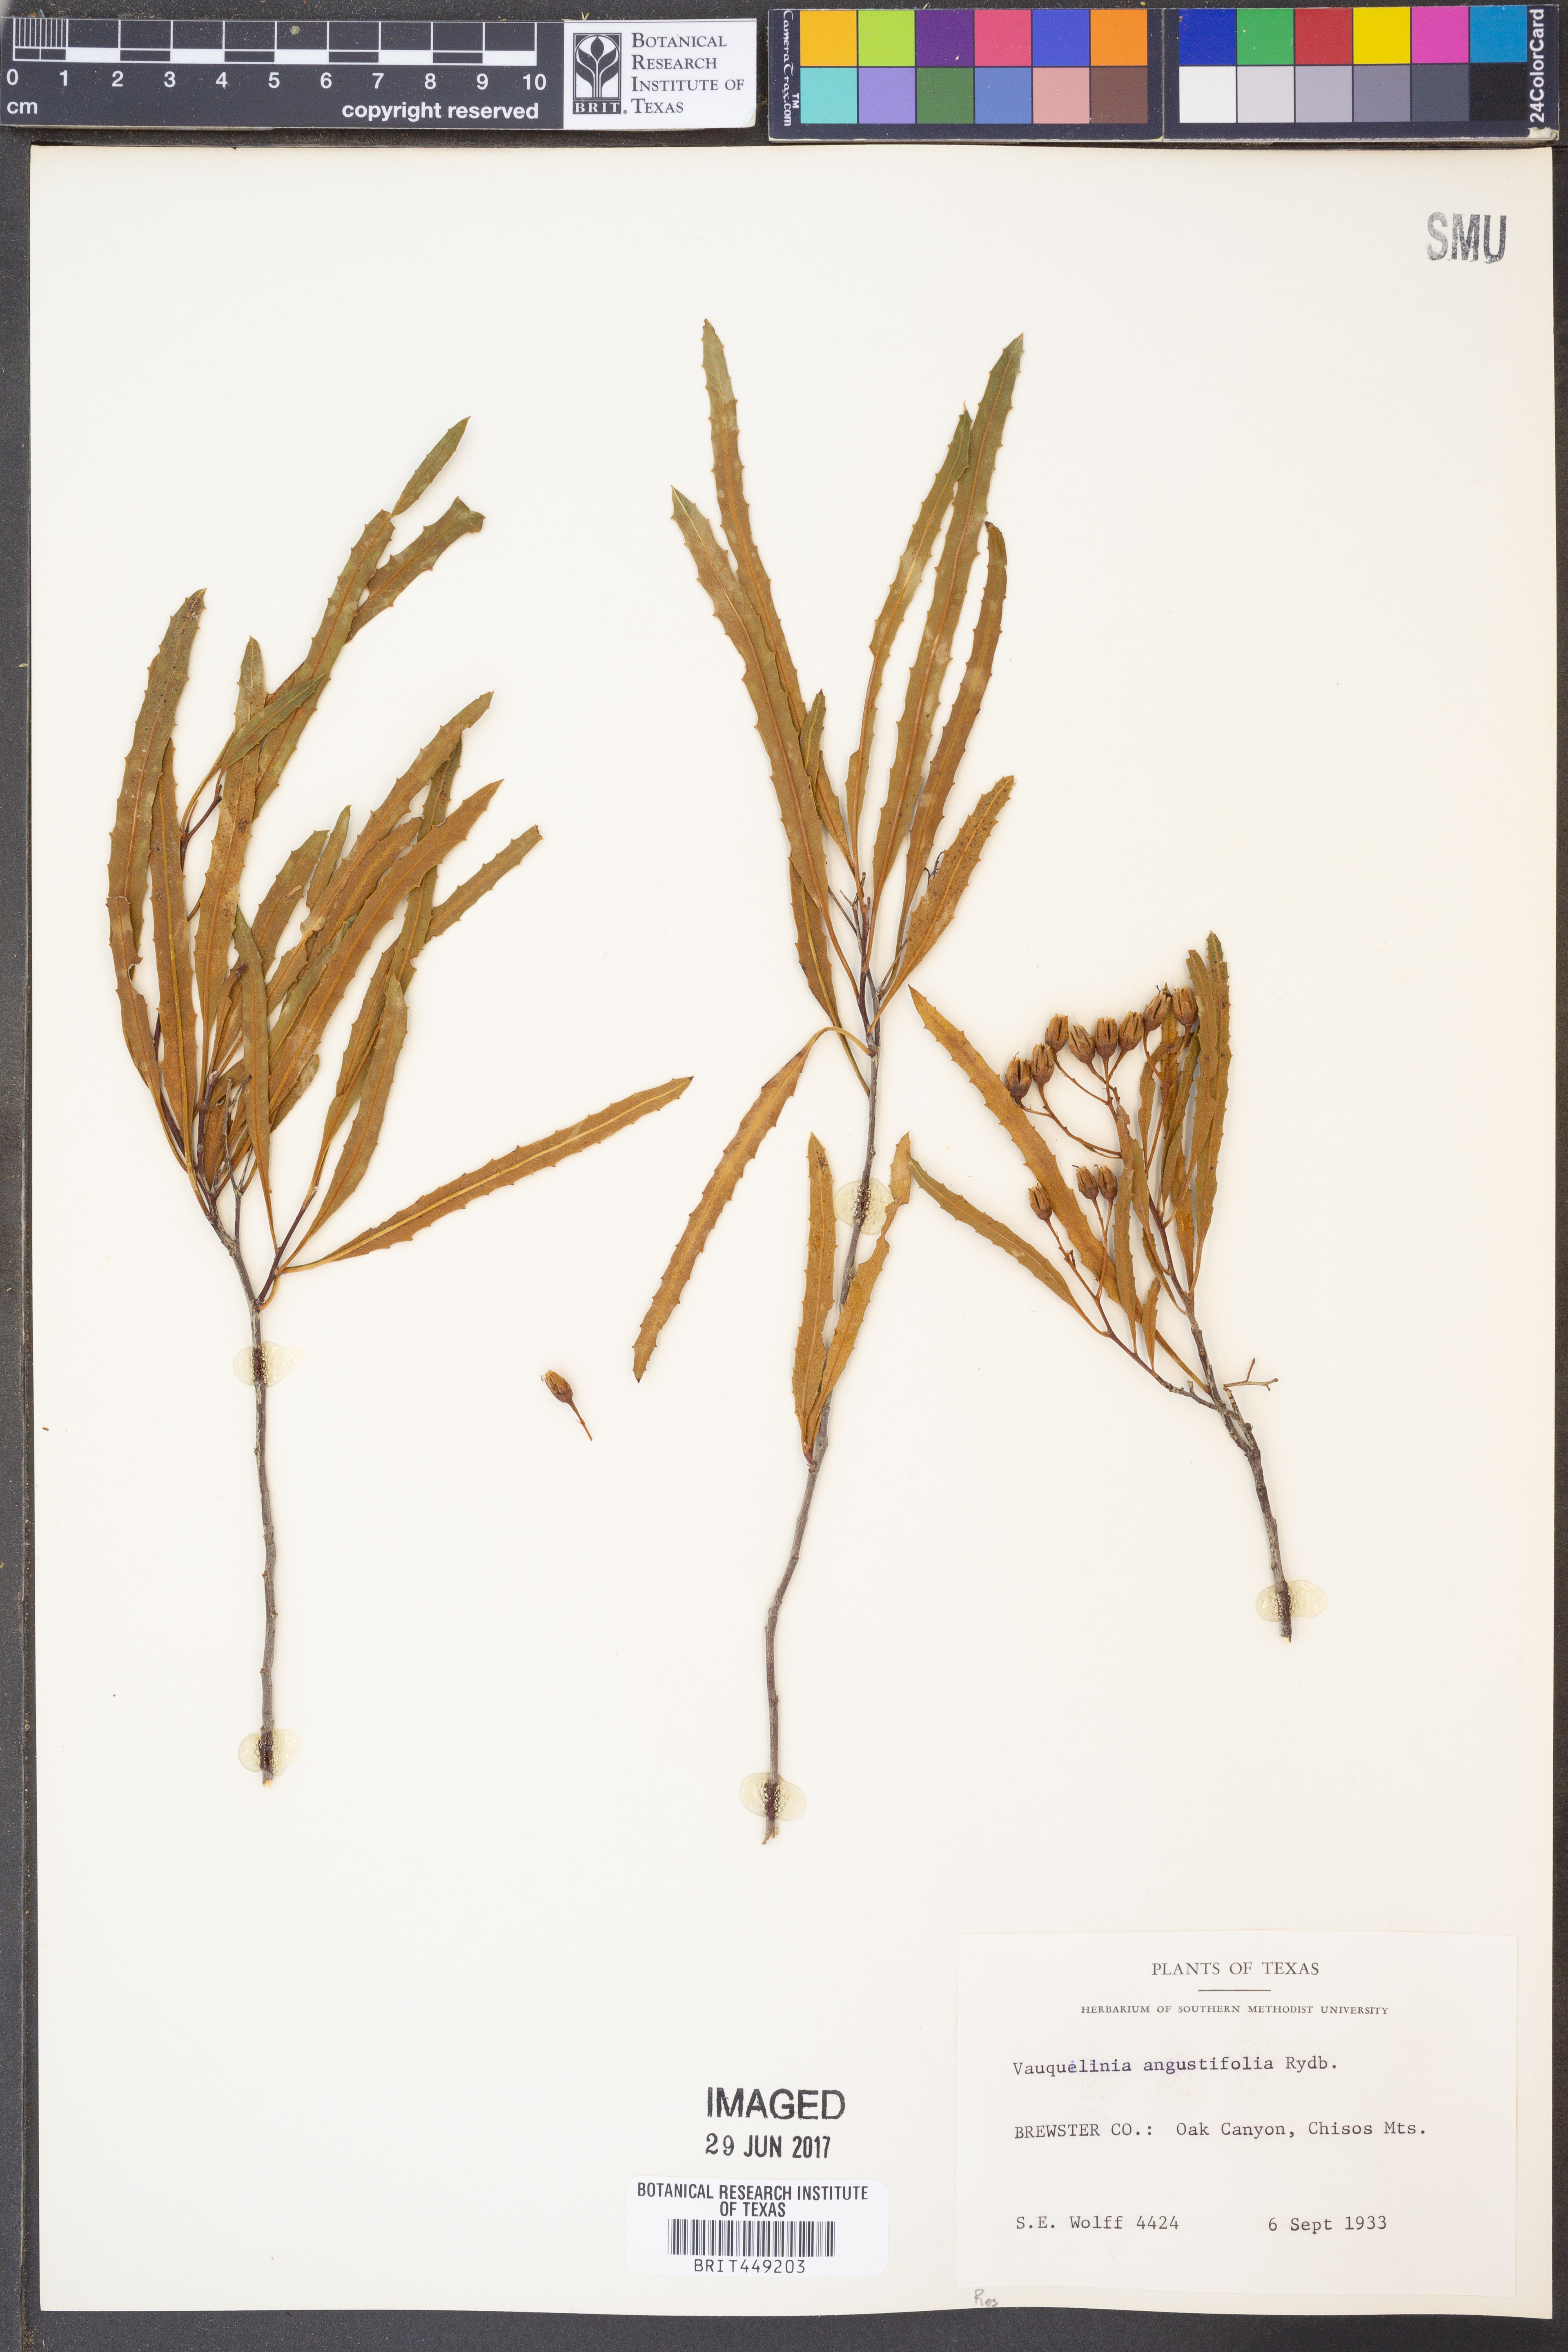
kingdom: Plantae
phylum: Tracheophyta
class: Magnoliopsida
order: Rosales
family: Rosaceae
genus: Vauquelinia
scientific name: Vauquelinia corymbosa
